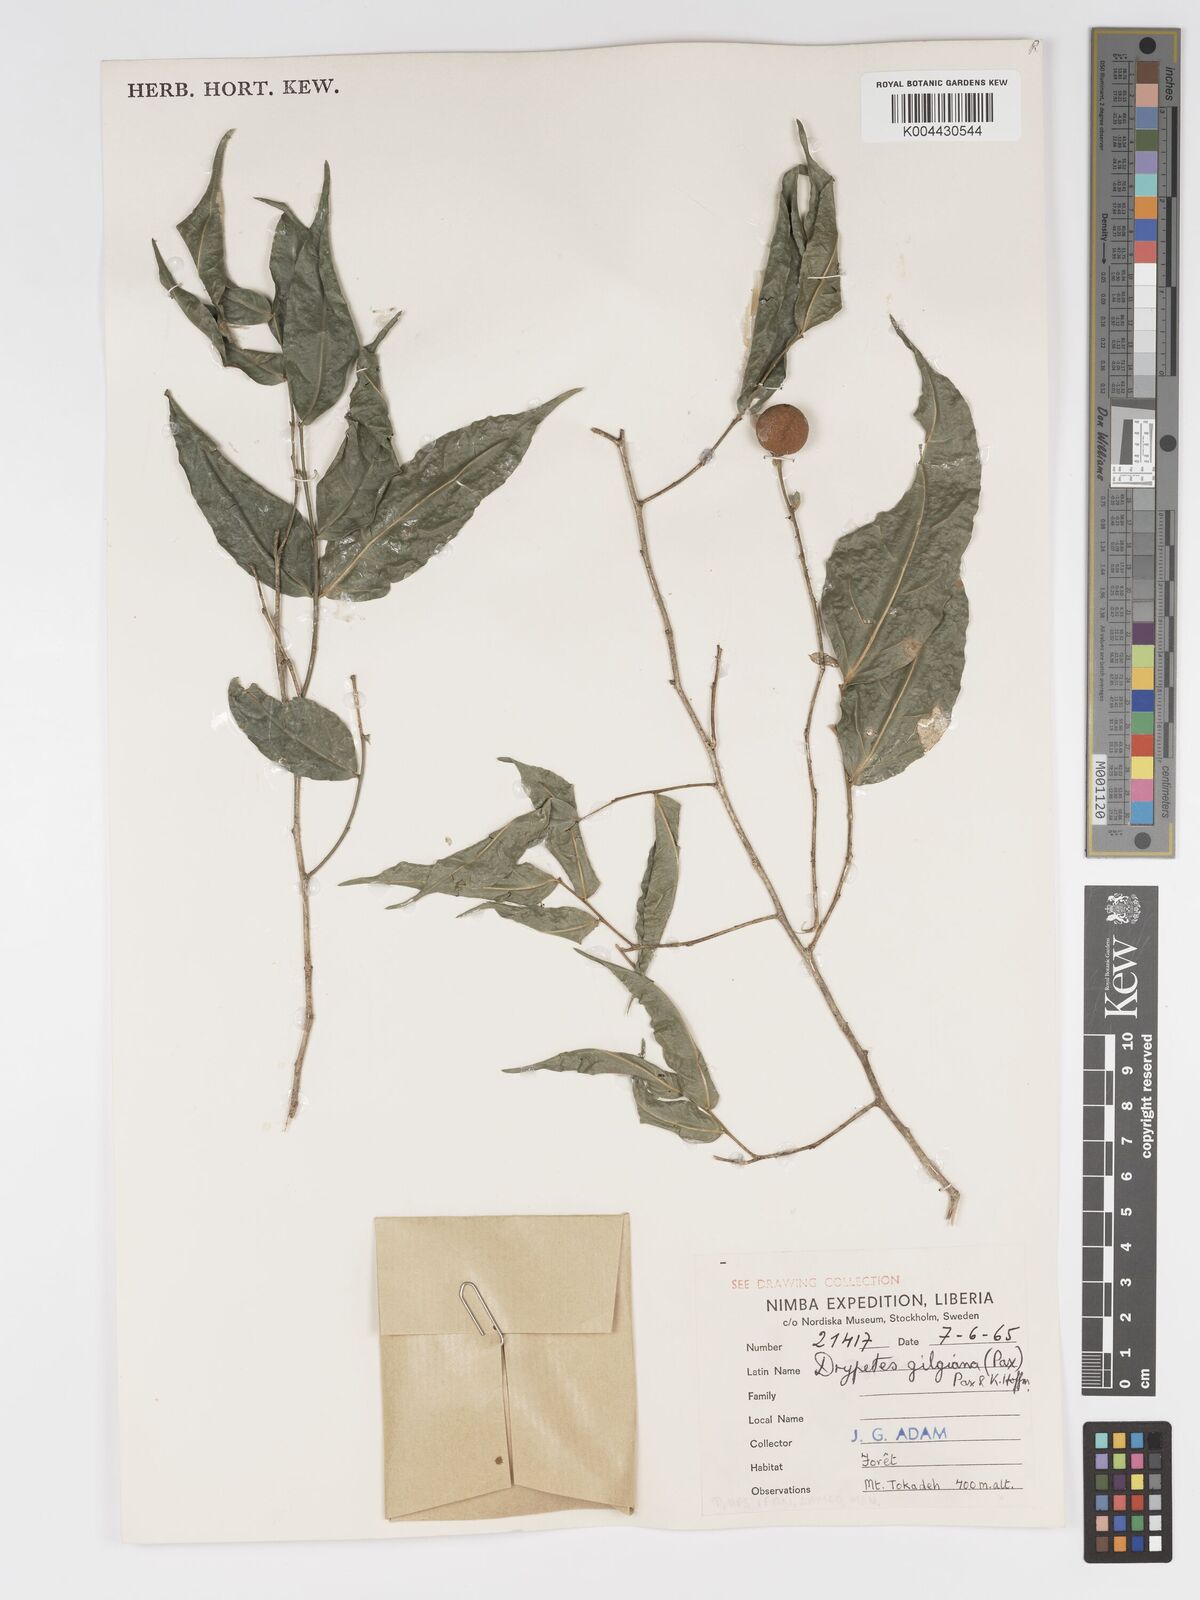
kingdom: Plantae
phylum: Tracheophyta
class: Magnoliopsida
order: Malpighiales
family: Putranjivaceae
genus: Drypetes
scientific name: Drypetes gilgiana
